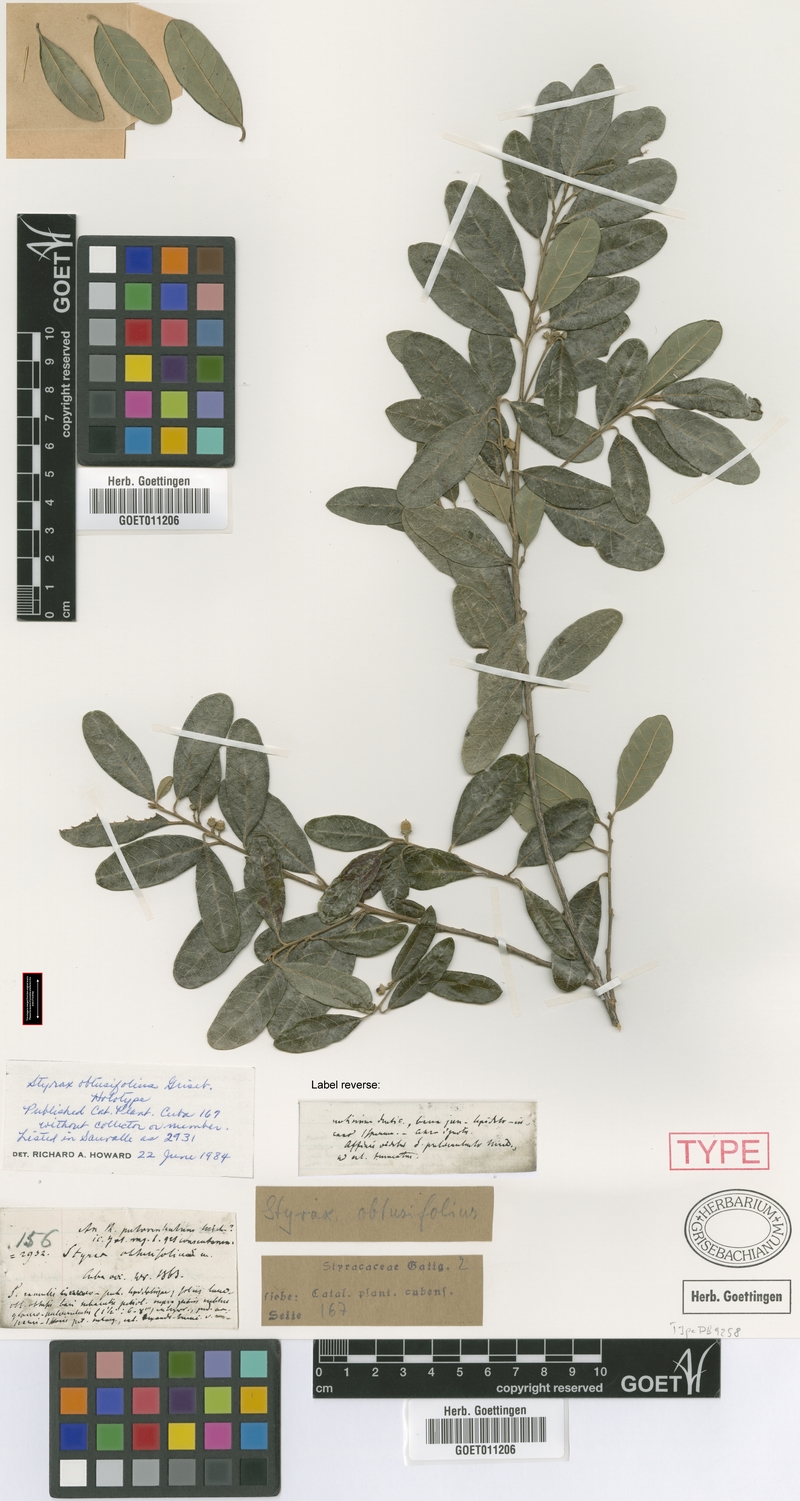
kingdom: Plantae
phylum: Tracheophyta
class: Magnoliopsida
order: Ericales
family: Styracaceae
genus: Styrax
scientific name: Styrax obtusifolius
